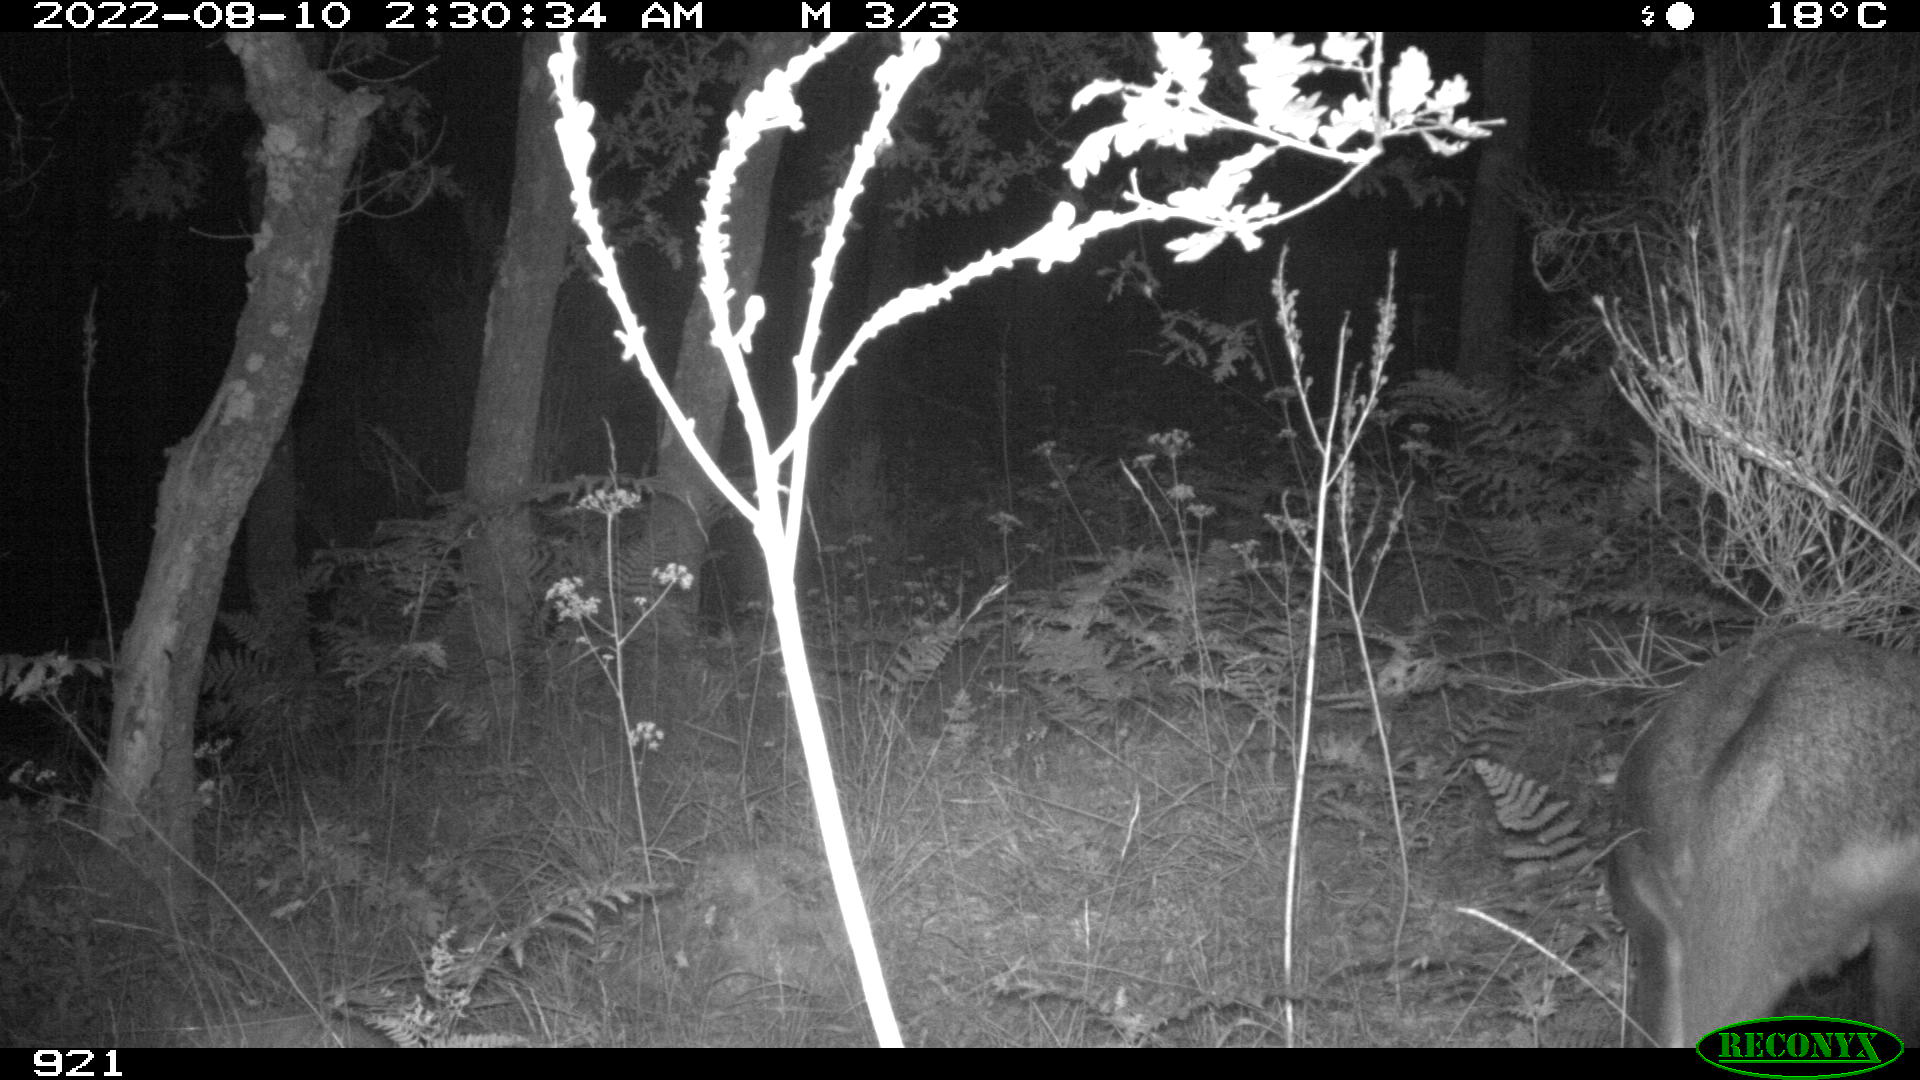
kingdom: Animalia
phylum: Chordata
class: Mammalia
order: Artiodactyla
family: Cervidae
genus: Capreolus
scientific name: Capreolus capreolus
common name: Western roe deer
